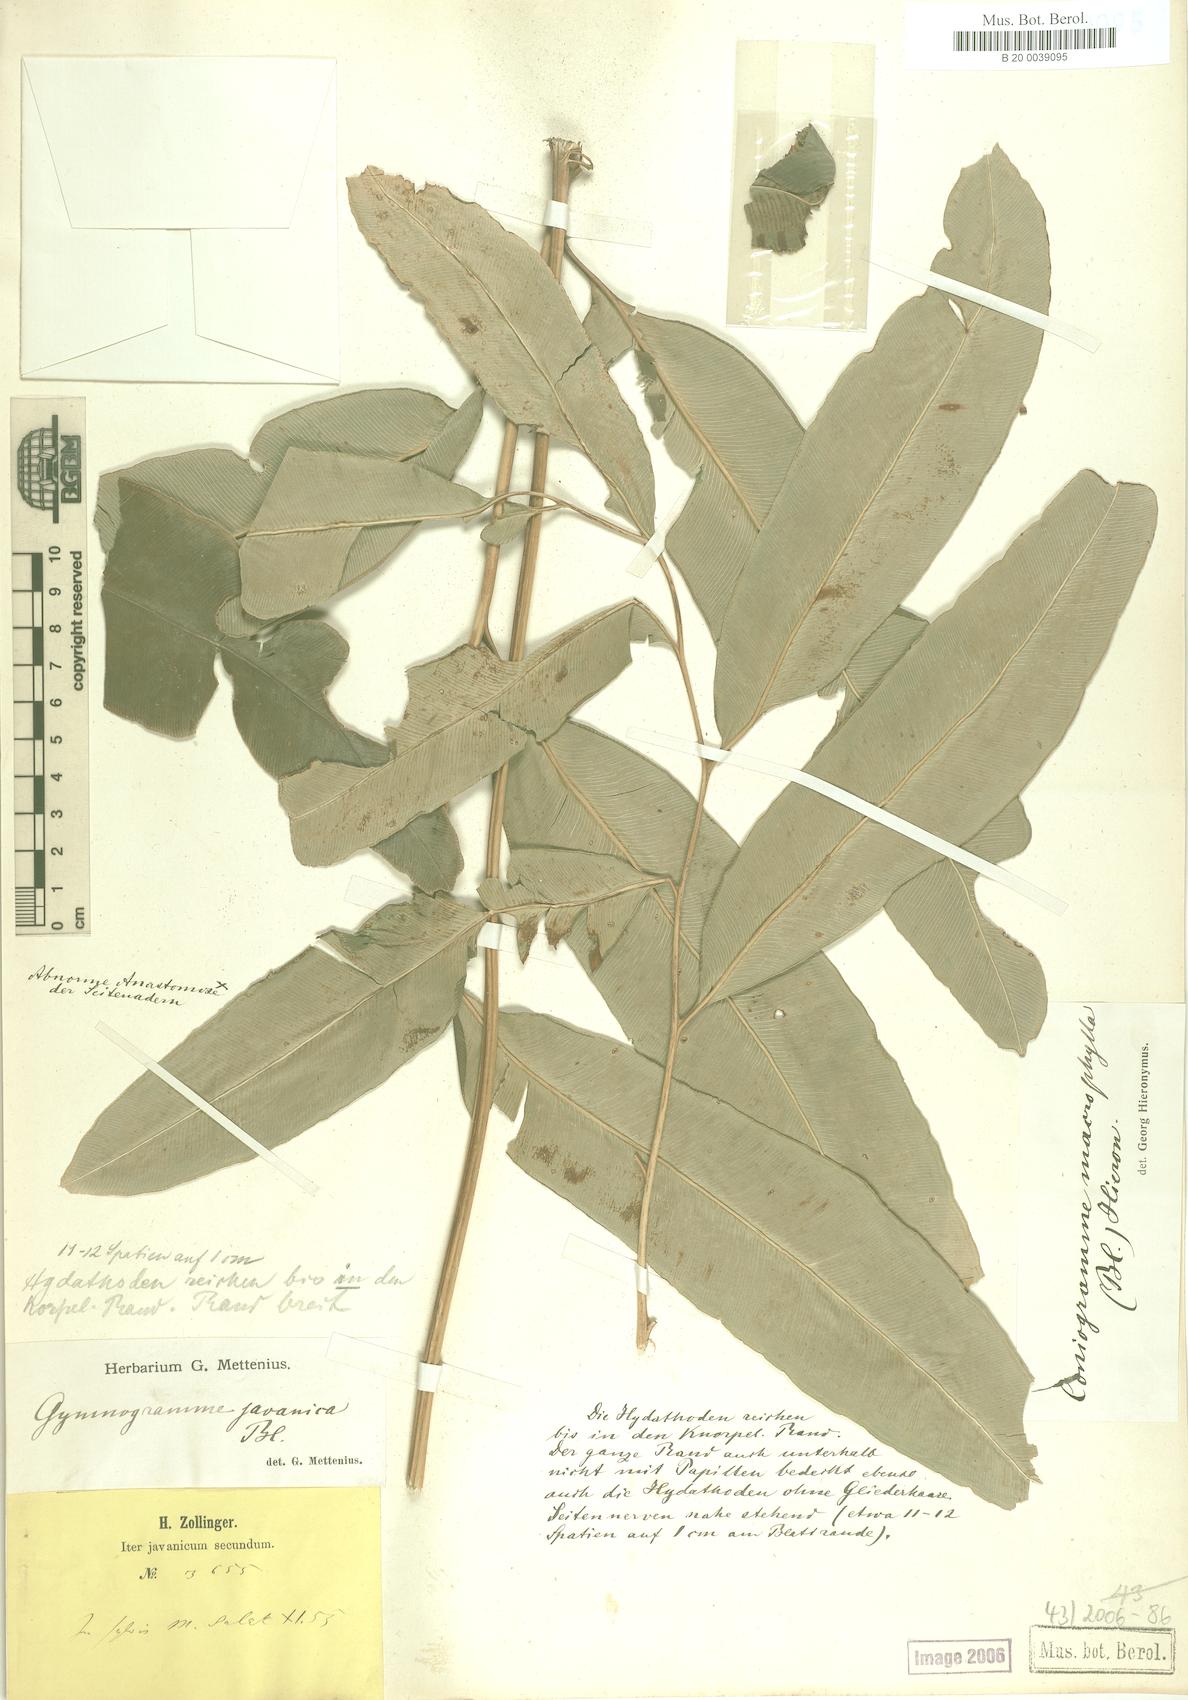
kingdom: Plantae
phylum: Tracheophyta
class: Polypodiopsida
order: Polypodiales
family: Pteridaceae
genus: Coniogramme
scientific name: Coniogramme fraxinea
